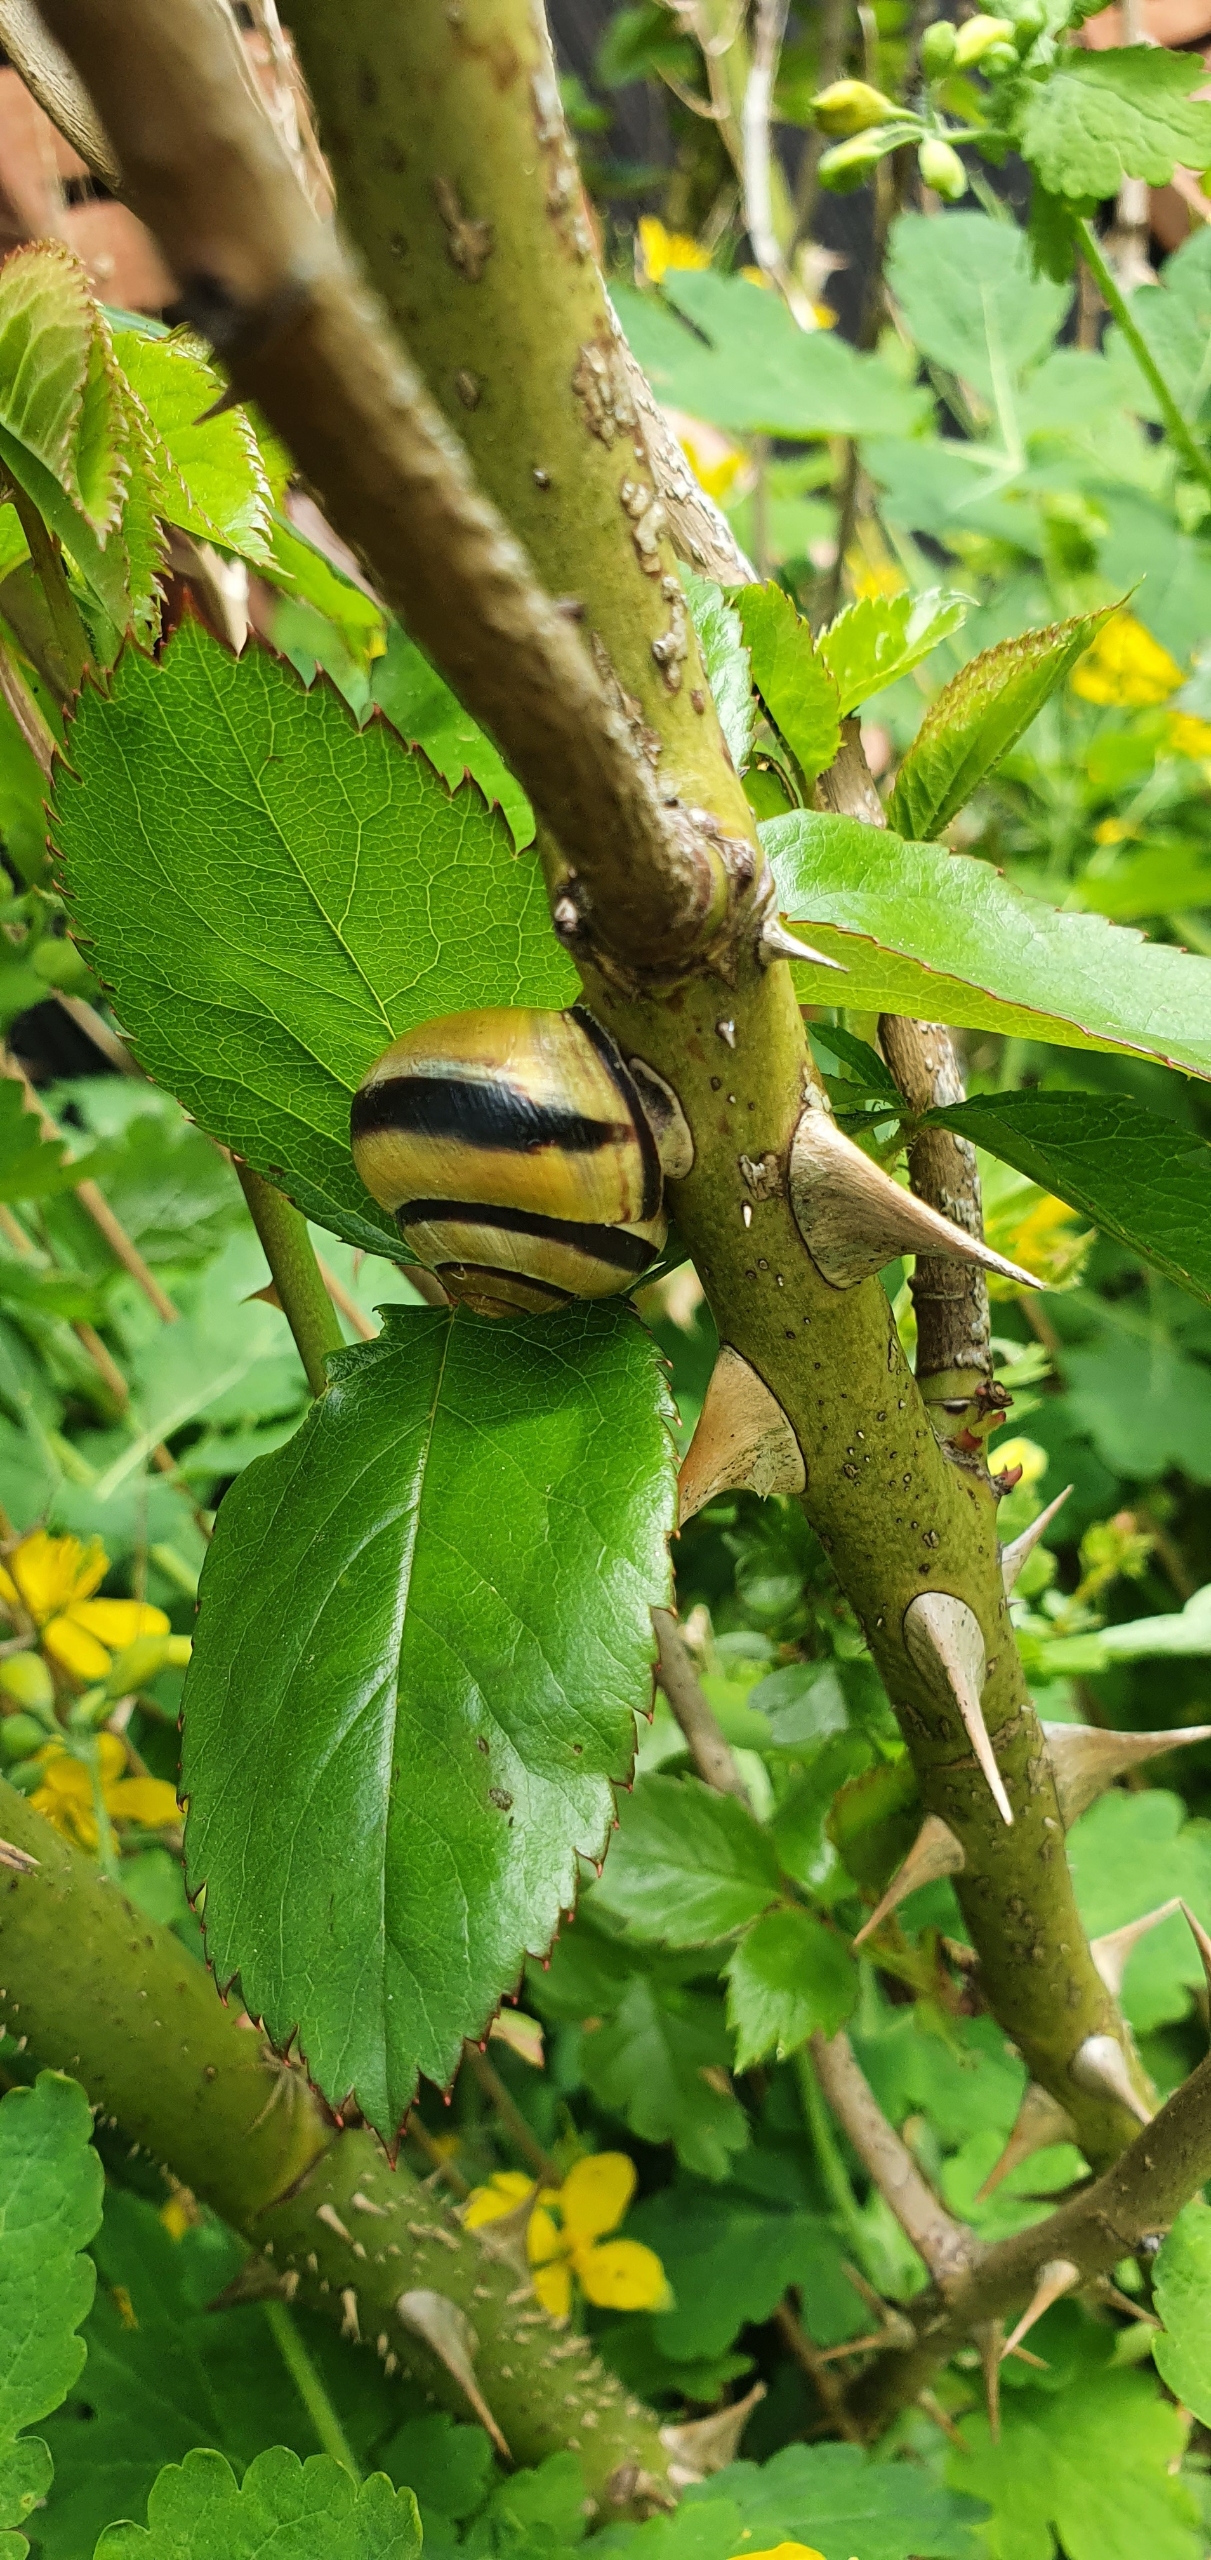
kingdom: Animalia
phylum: Mollusca
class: Gastropoda
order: Stylommatophora
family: Helicidae
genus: Cepaea
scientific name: Cepaea nemoralis
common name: Lundsnegl
